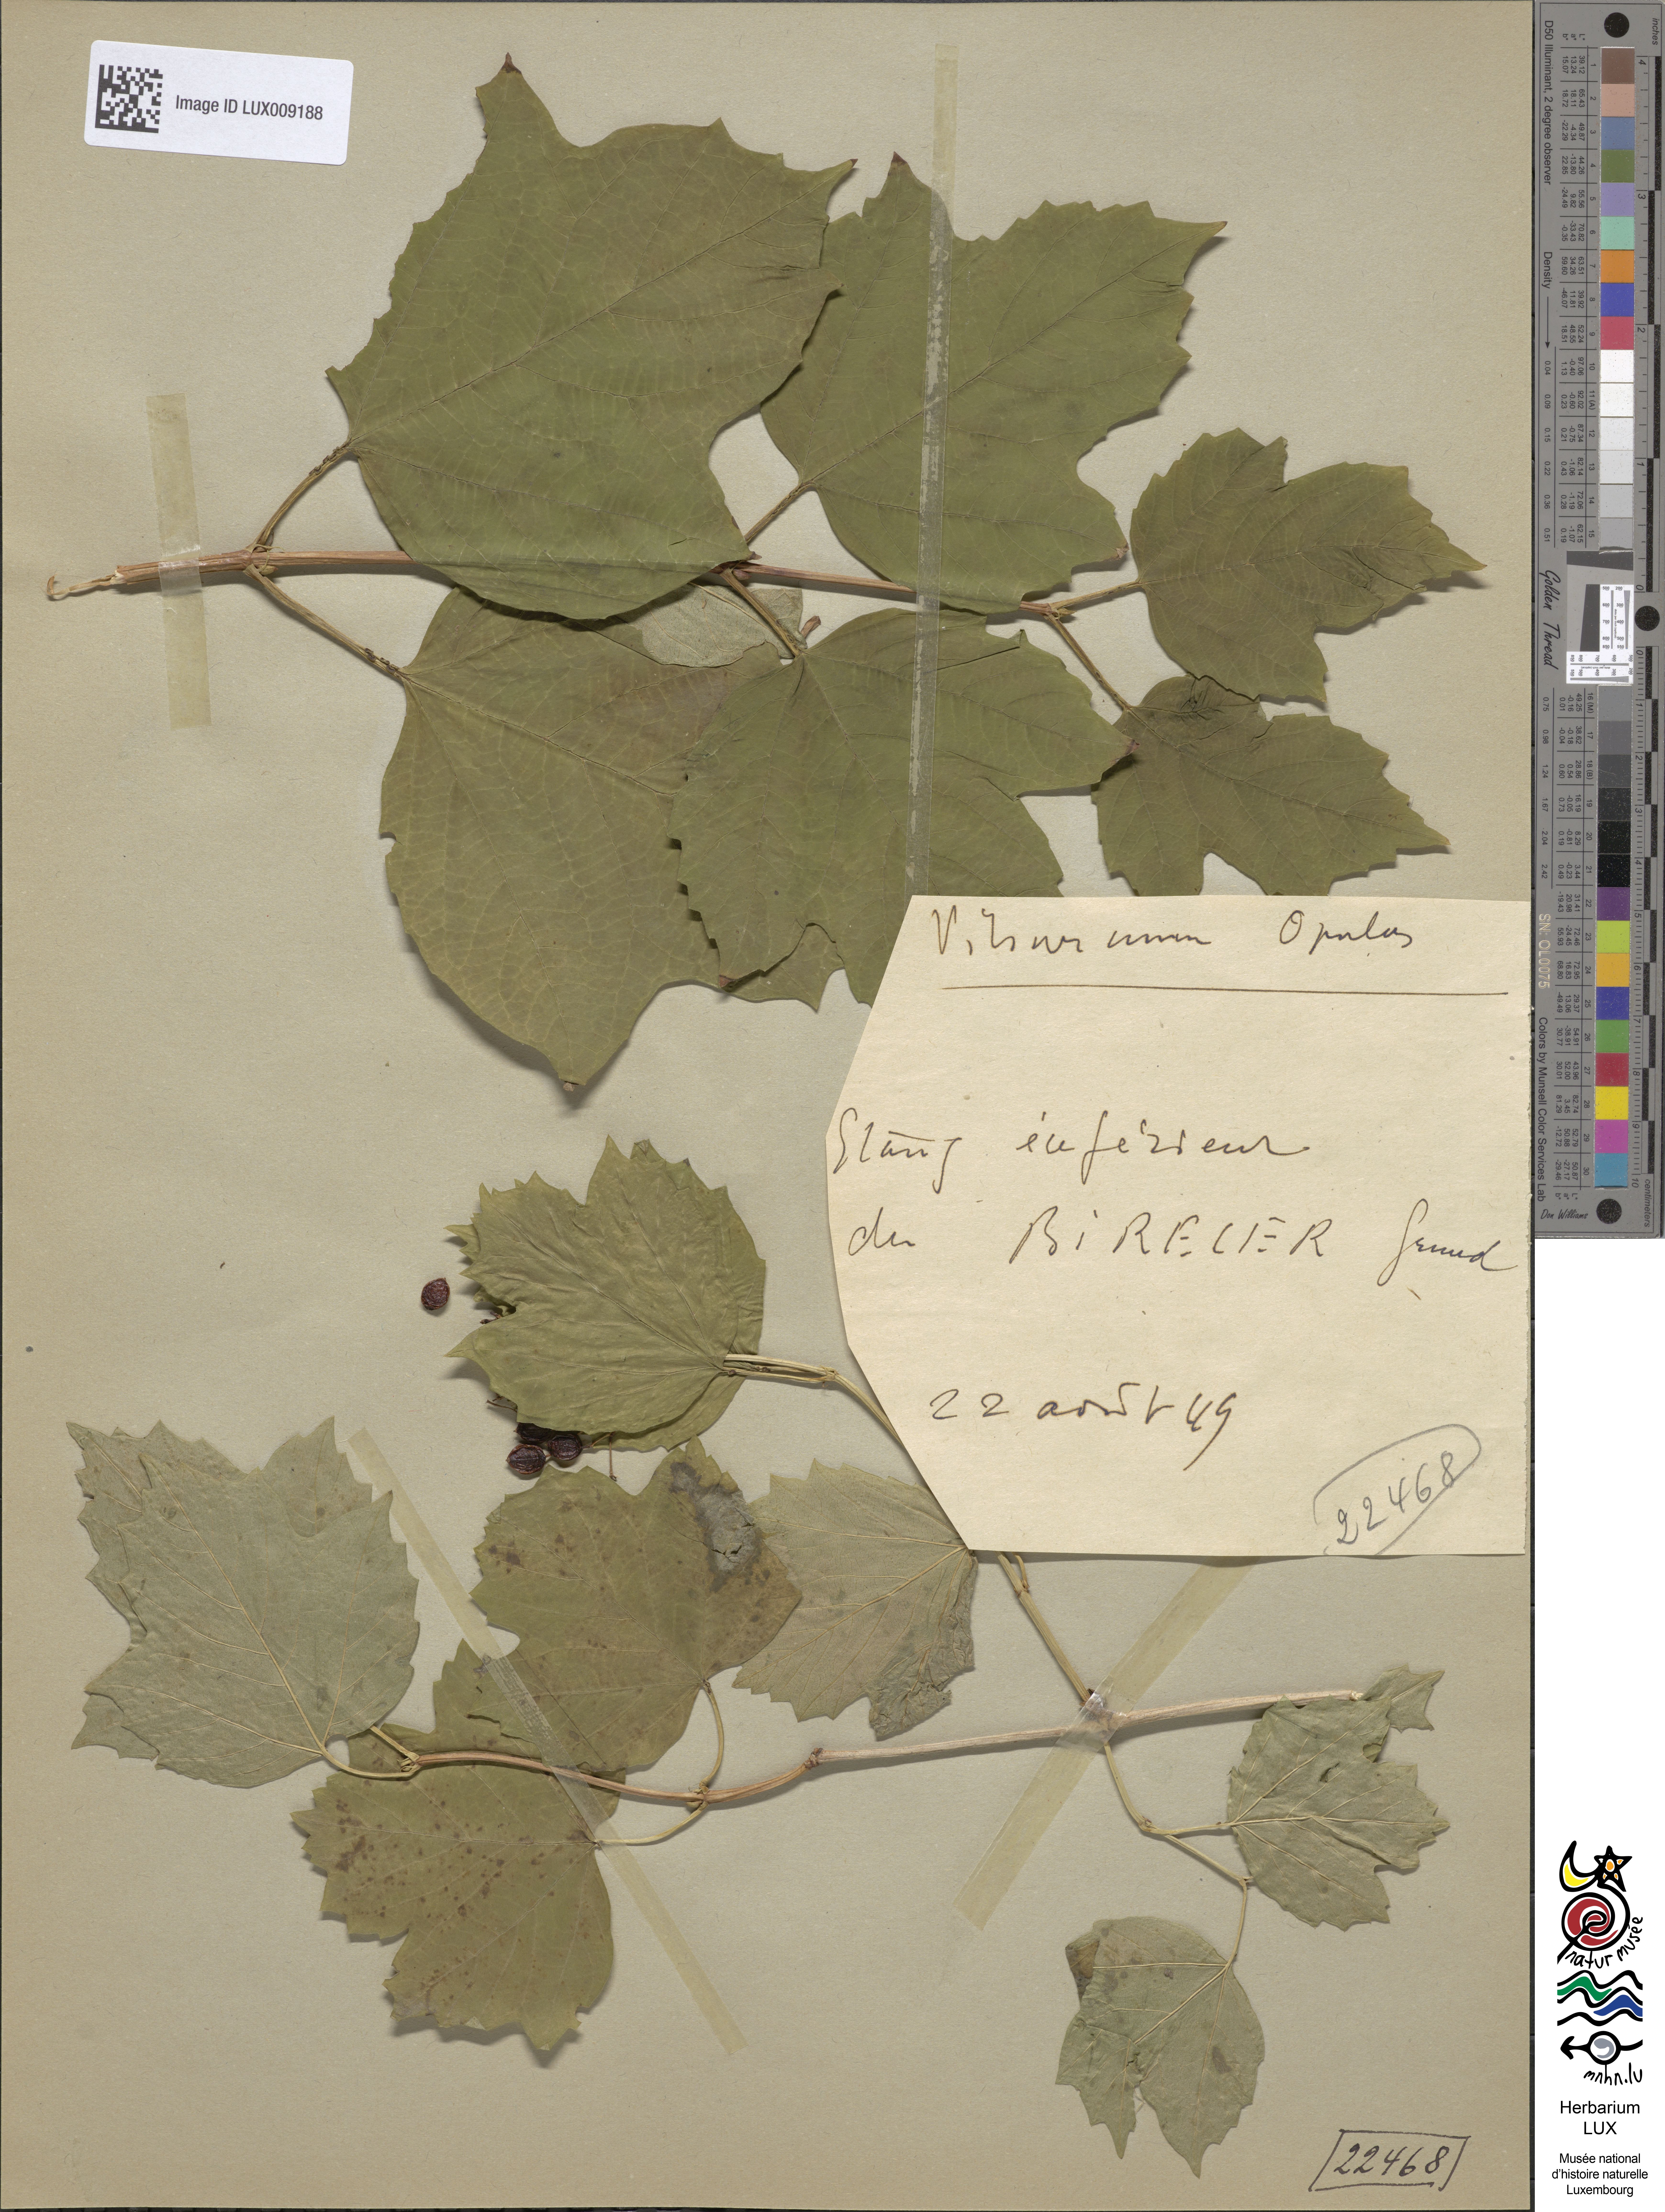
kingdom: Plantae
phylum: Tracheophyta
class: Magnoliopsida
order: Dipsacales
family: Viburnaceae
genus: Viburnum
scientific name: Viburnum opulus
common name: Guelder-rose
